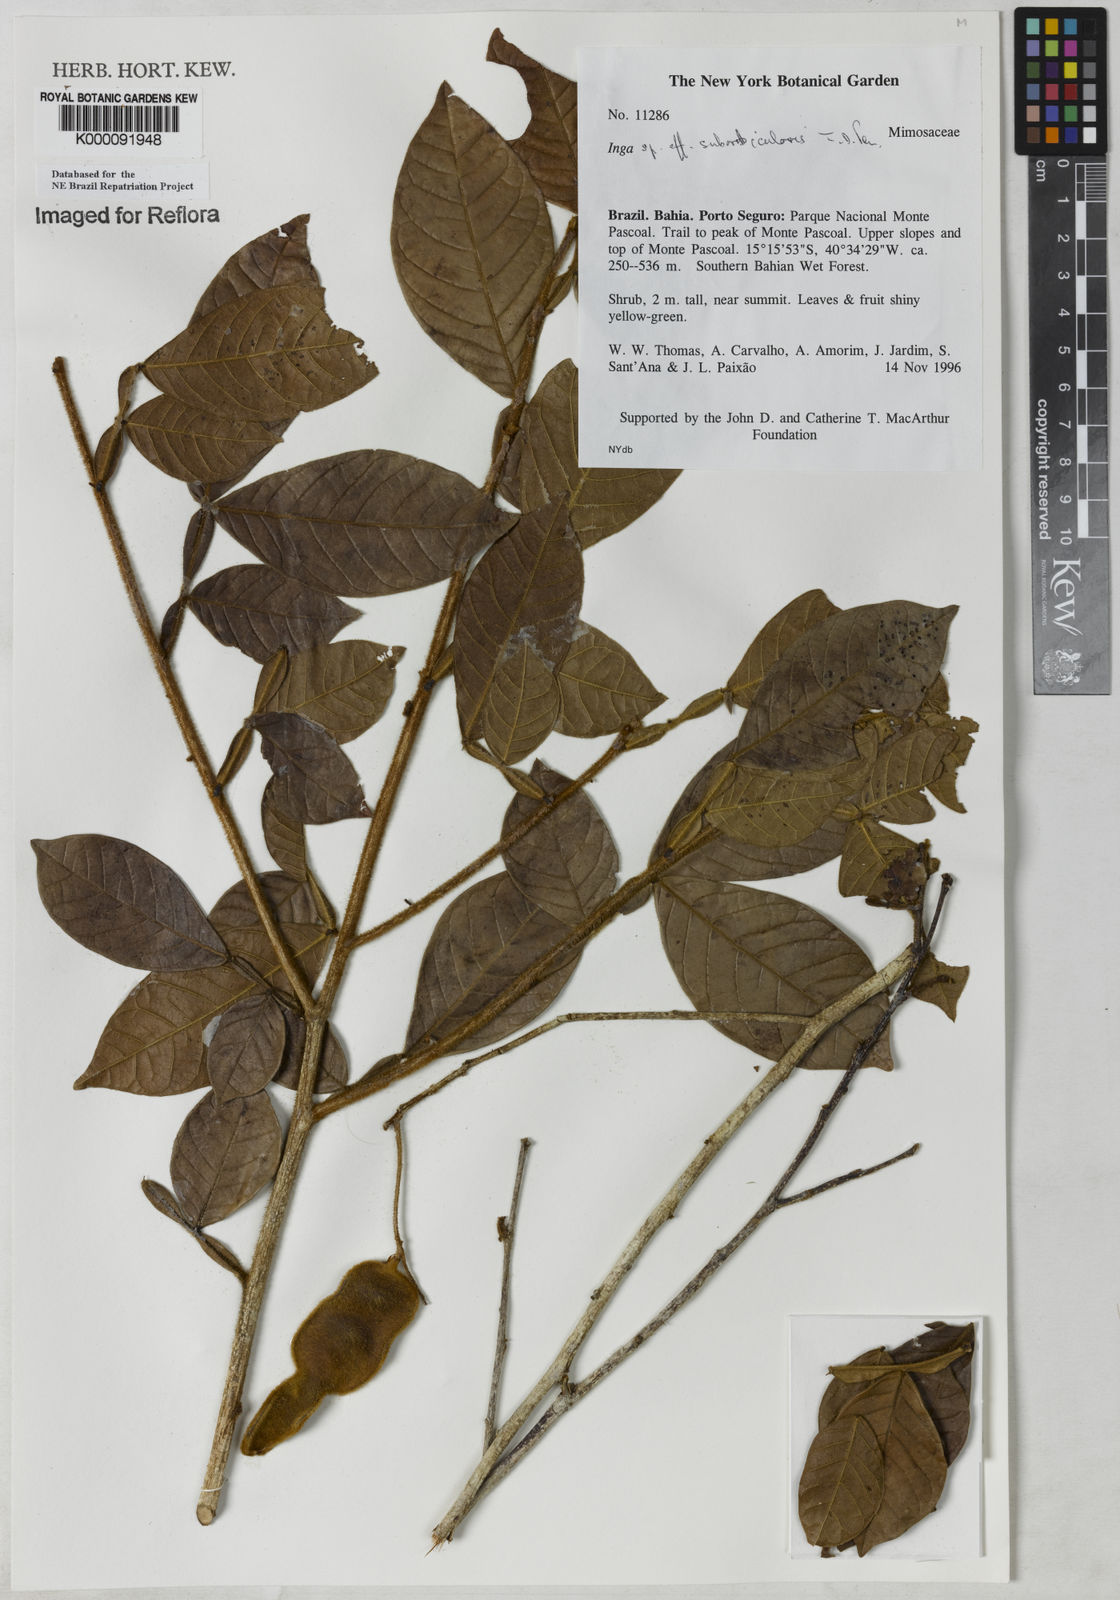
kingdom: Plantae
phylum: Tracheophyta
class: Magnoliopsida
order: Fabales
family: Fabaceae
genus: Inga
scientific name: Inga suborbicularis
